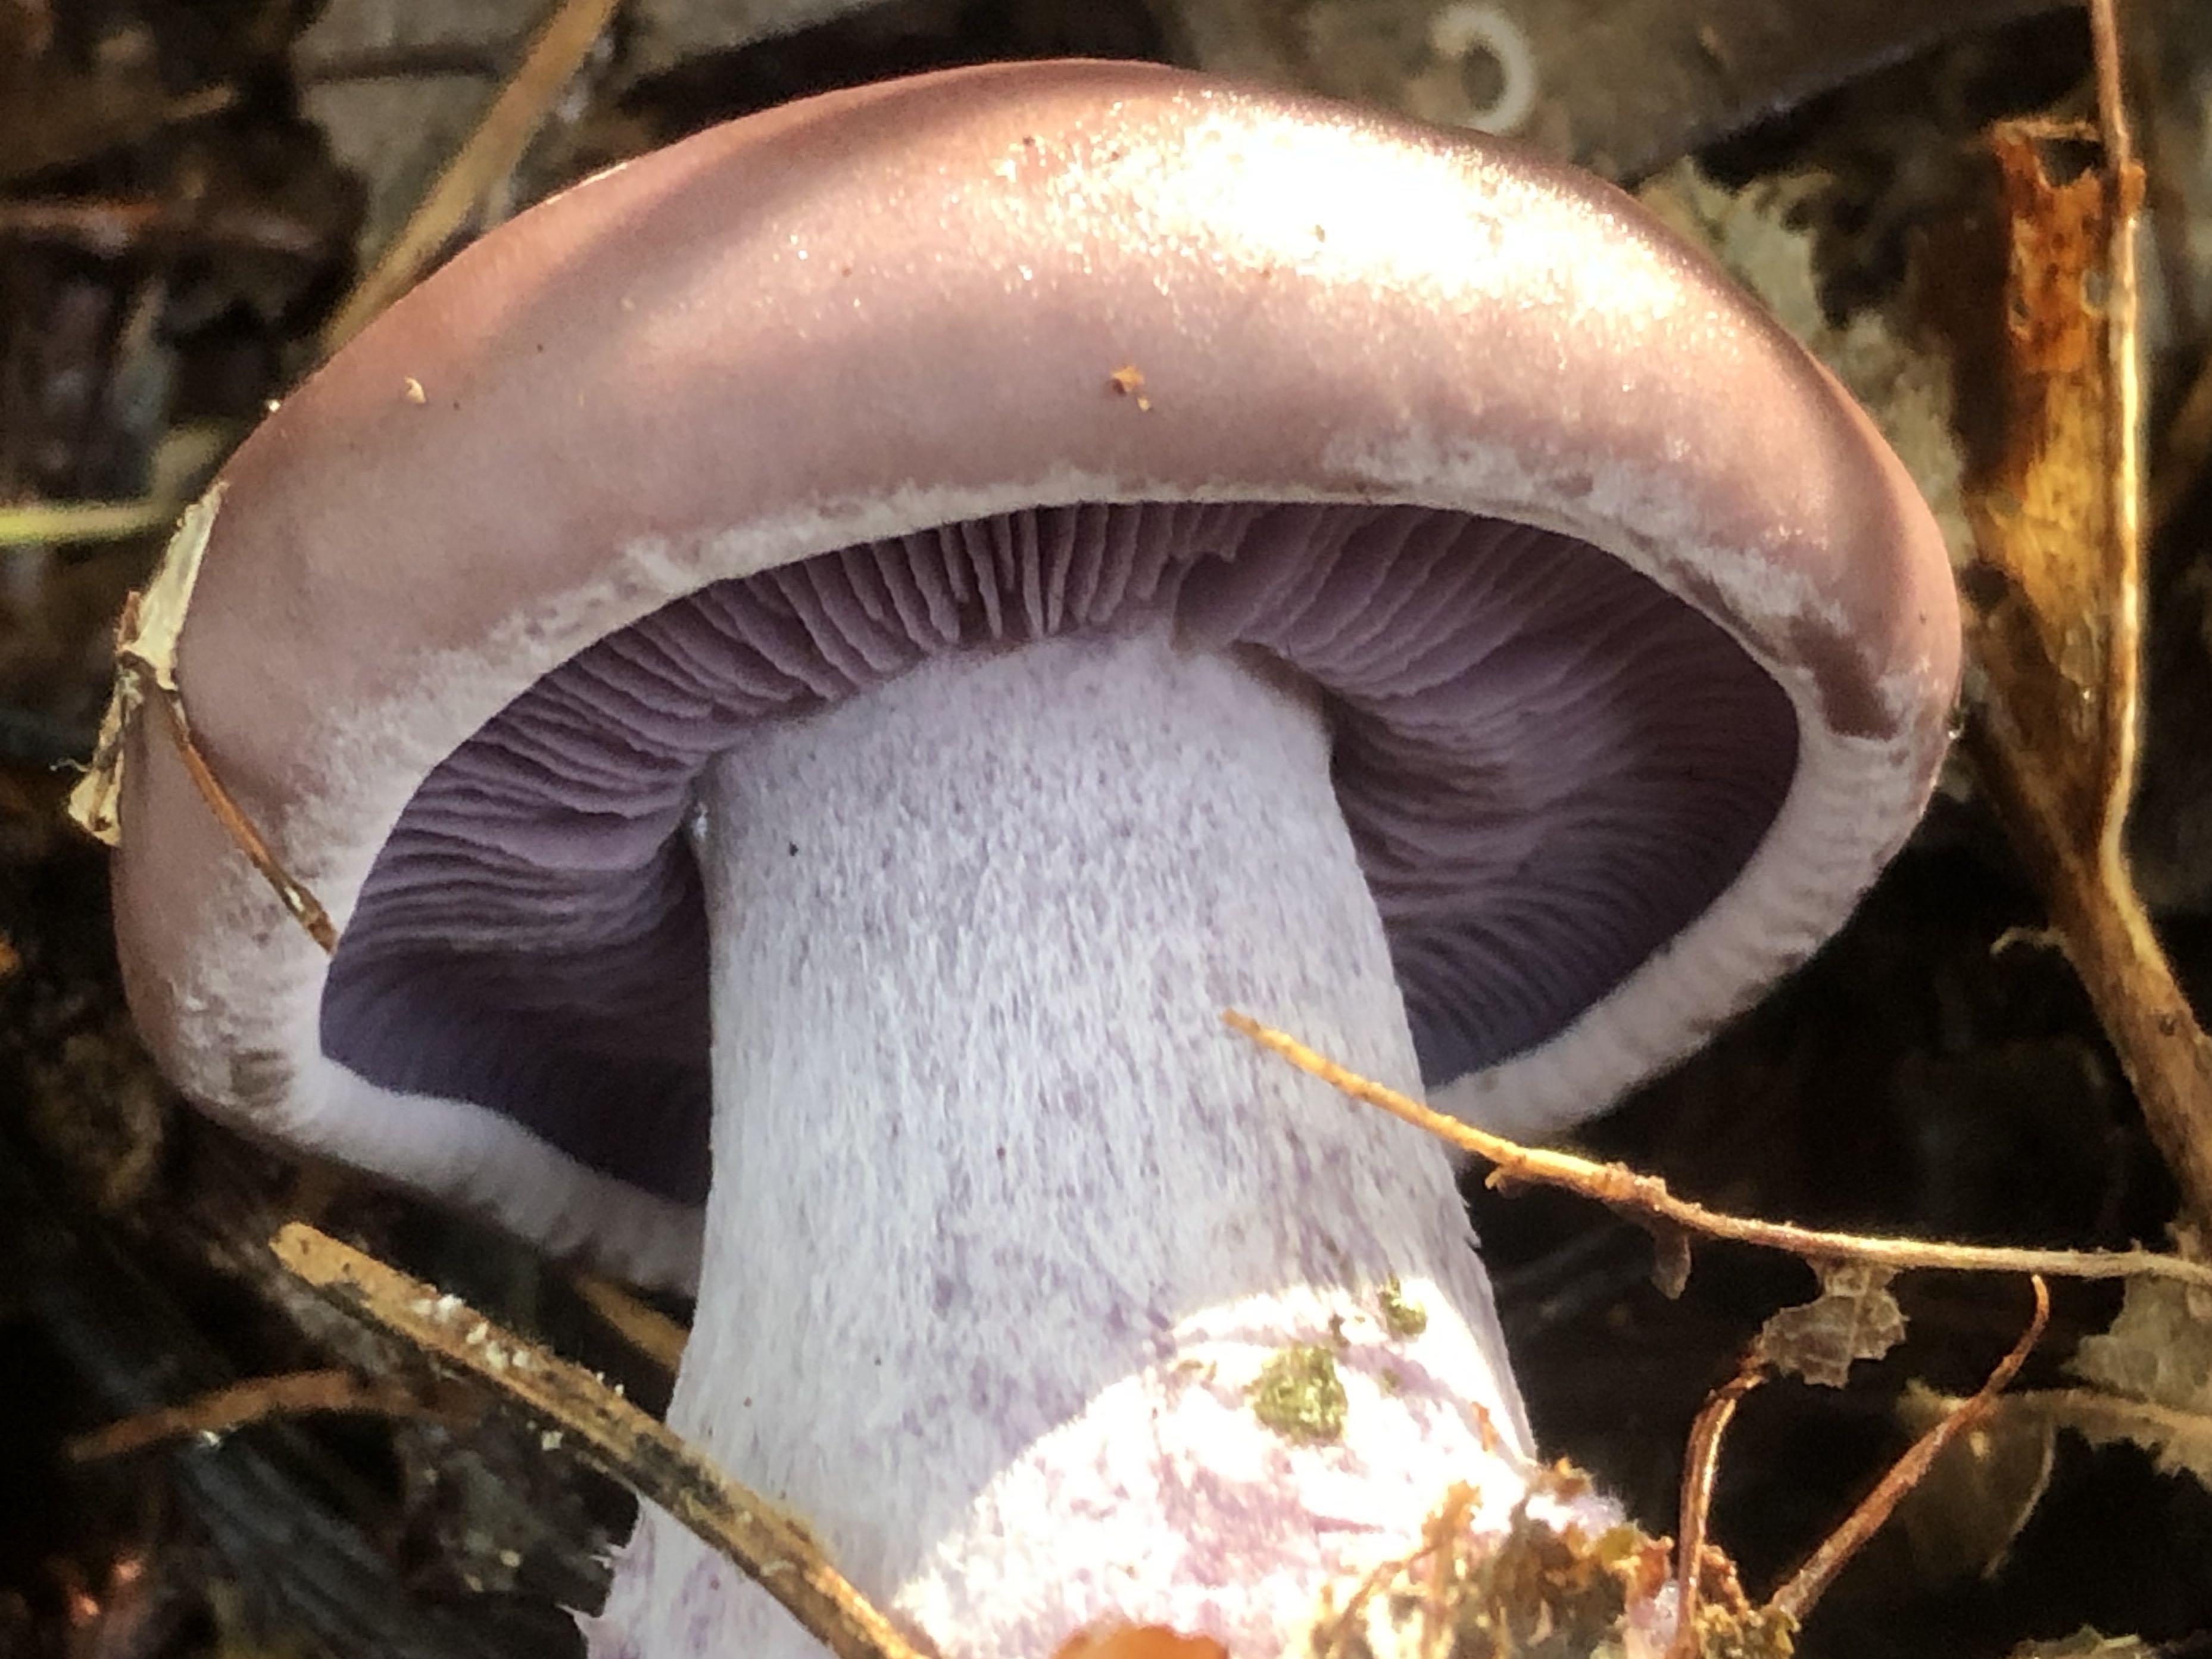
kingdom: Fungi
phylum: Basidiomycota
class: Agaricomycetes
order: Agaricales
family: Tricholomataceae
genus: Lepista
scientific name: Lepista nuda
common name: violet hekseringshat
